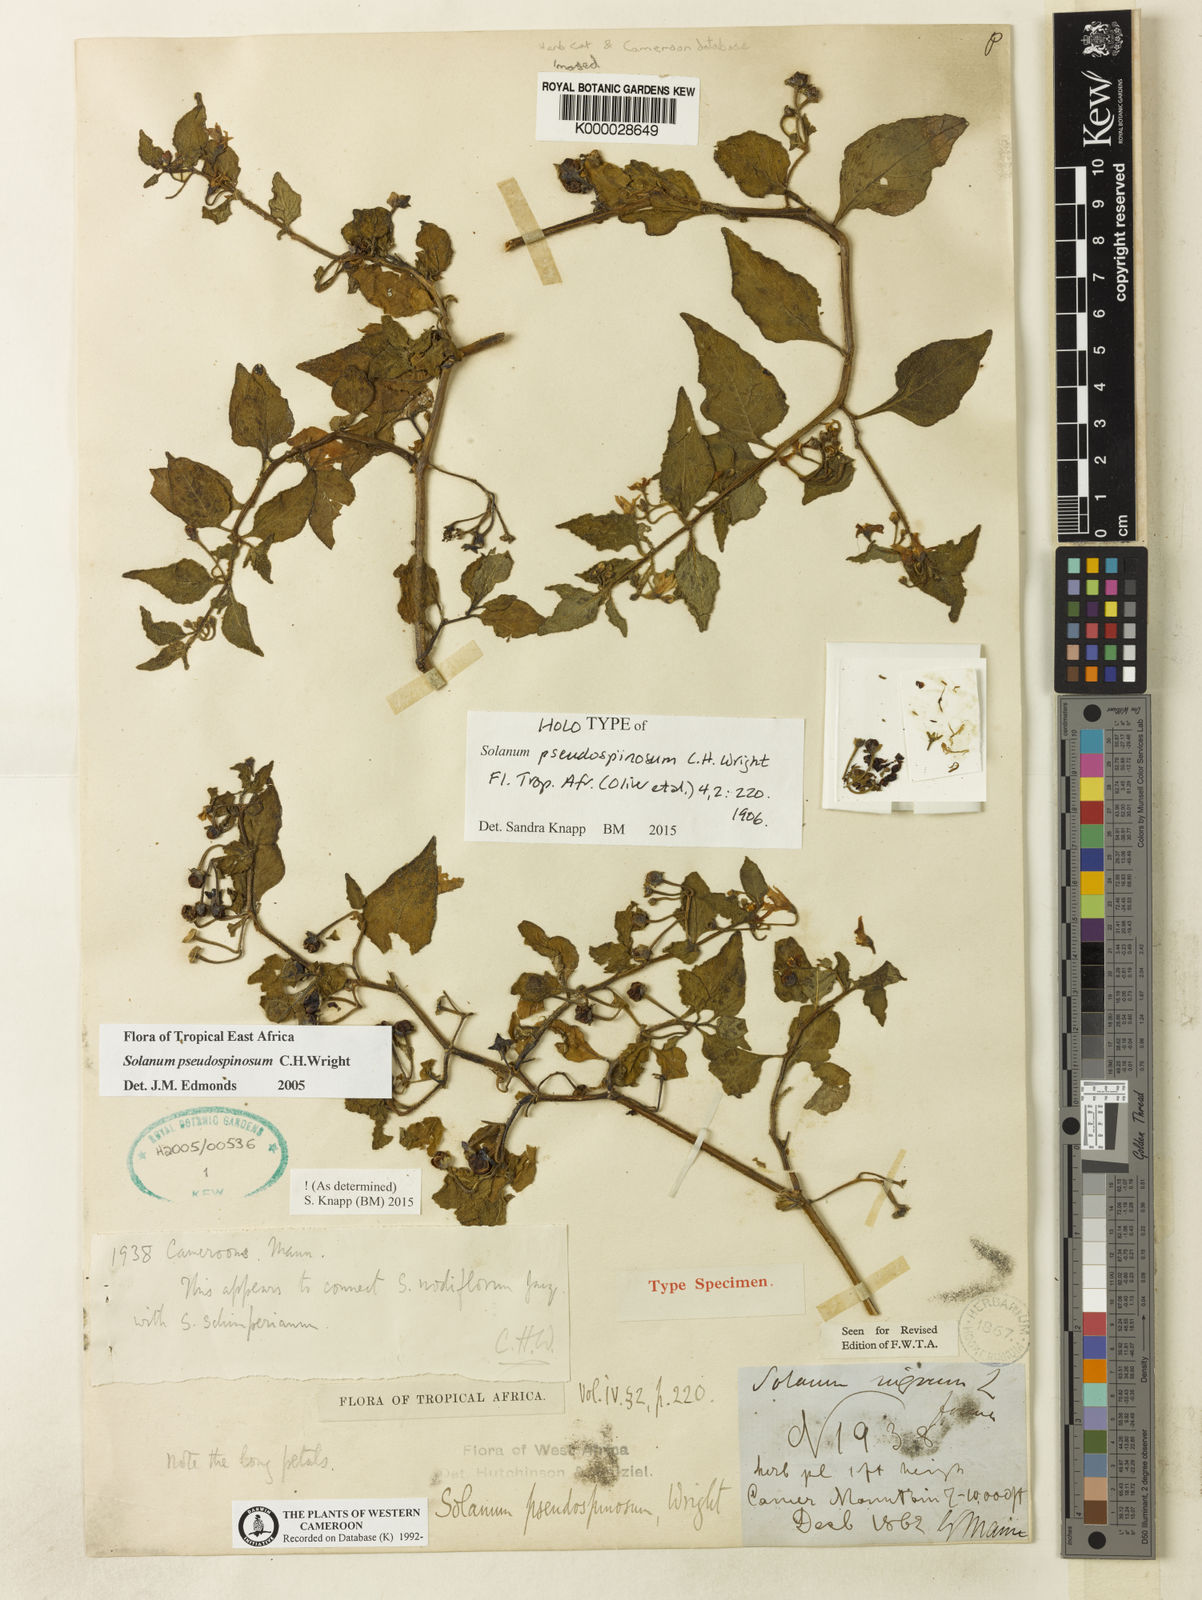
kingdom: Plantae
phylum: Tracheophyta
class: Magnoliopsida
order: Solanales
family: Solanaceae
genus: Solanum
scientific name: Solanum pseudospinosum
